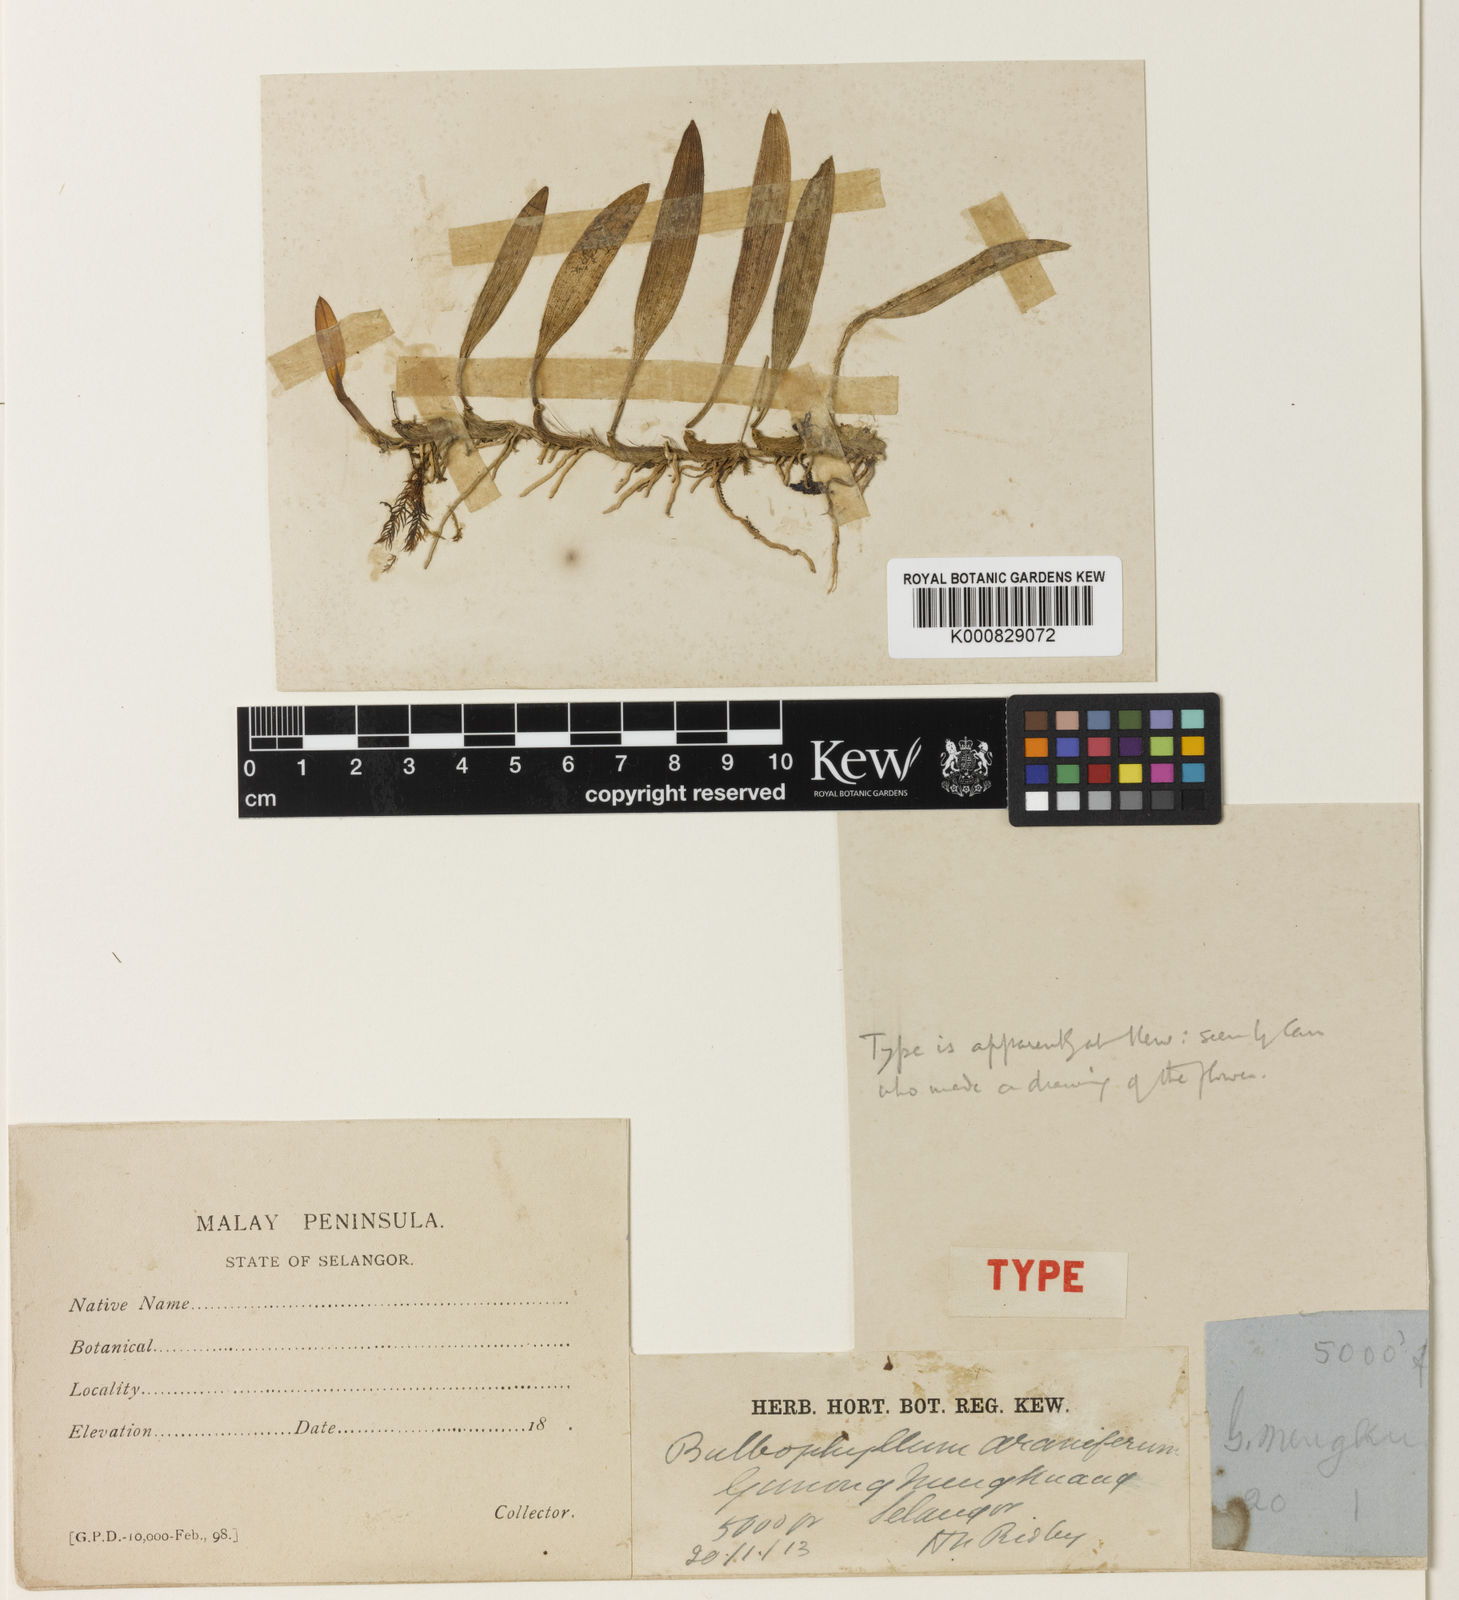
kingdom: Plantae
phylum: Tracheophyta
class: Liliopsida
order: Asparagales
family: Orchidaceae
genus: Bulbophyllum
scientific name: Bulbophyllum stormii
